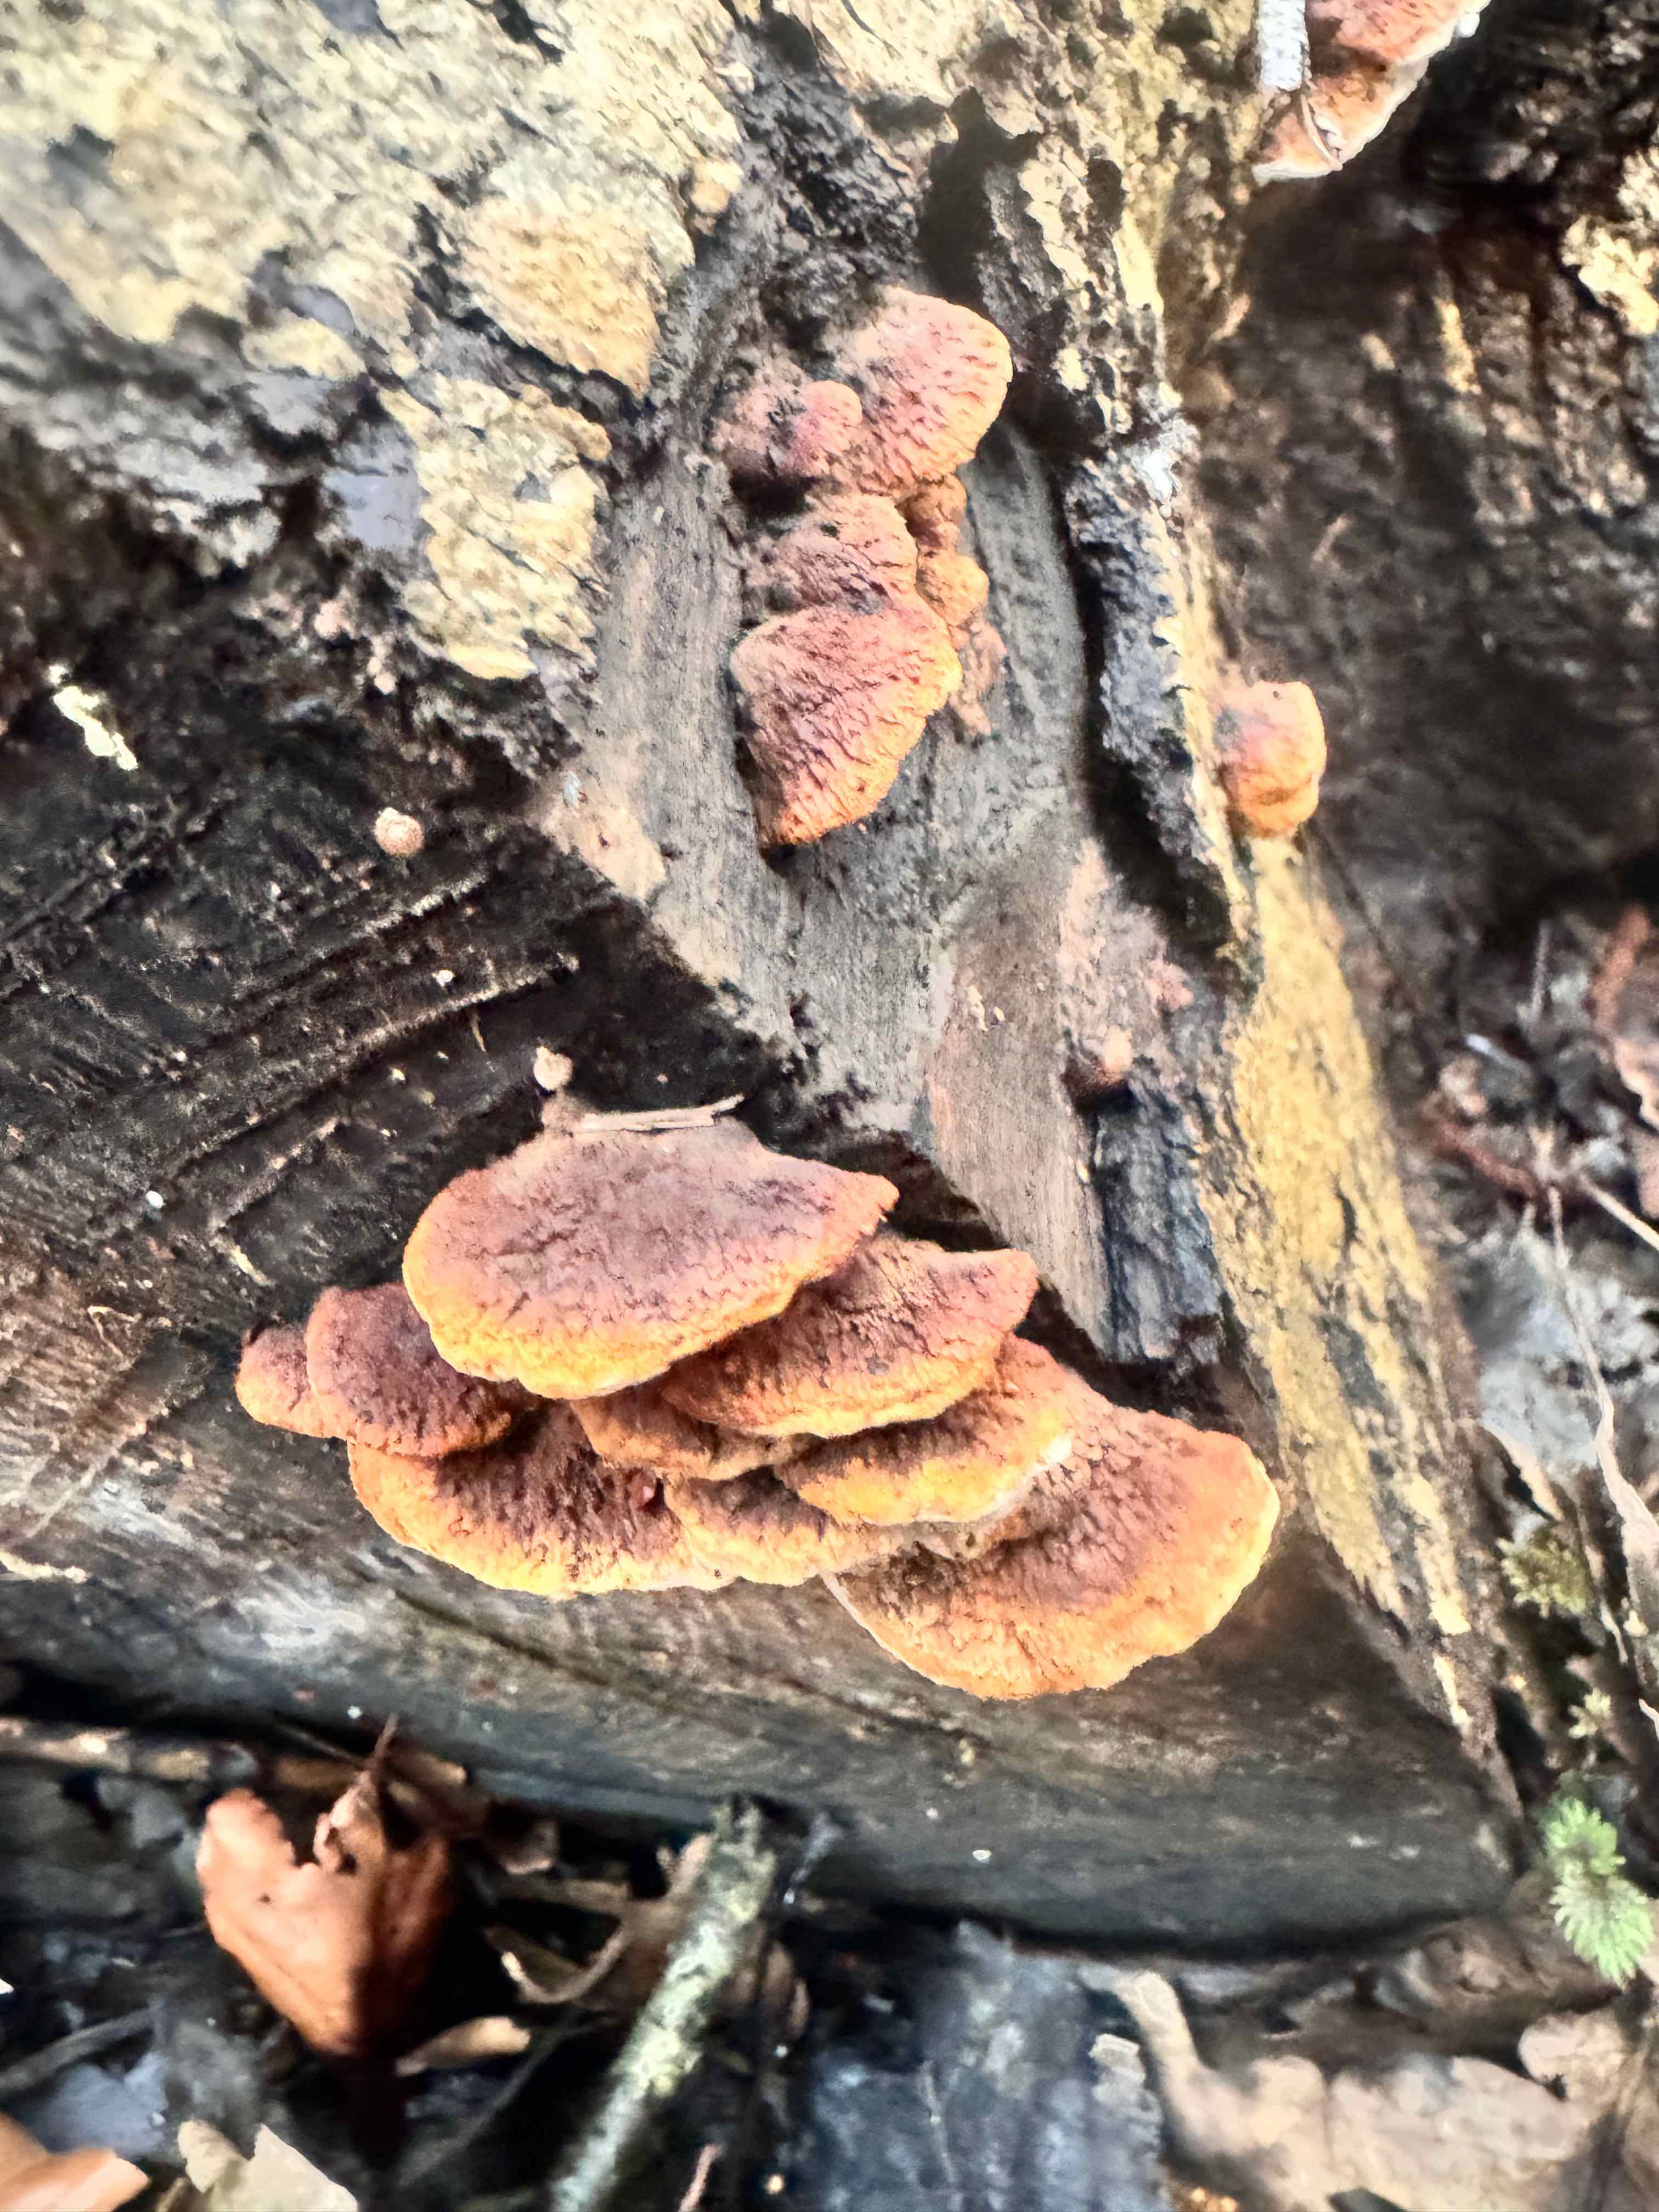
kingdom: Fungi
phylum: Basidiomycota
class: Agaricomycetes
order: Polyporales
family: Incrustoporiaceae
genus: Skeletocutis
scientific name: Skeletocutis nemoralis
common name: stor krystalporesvamp
